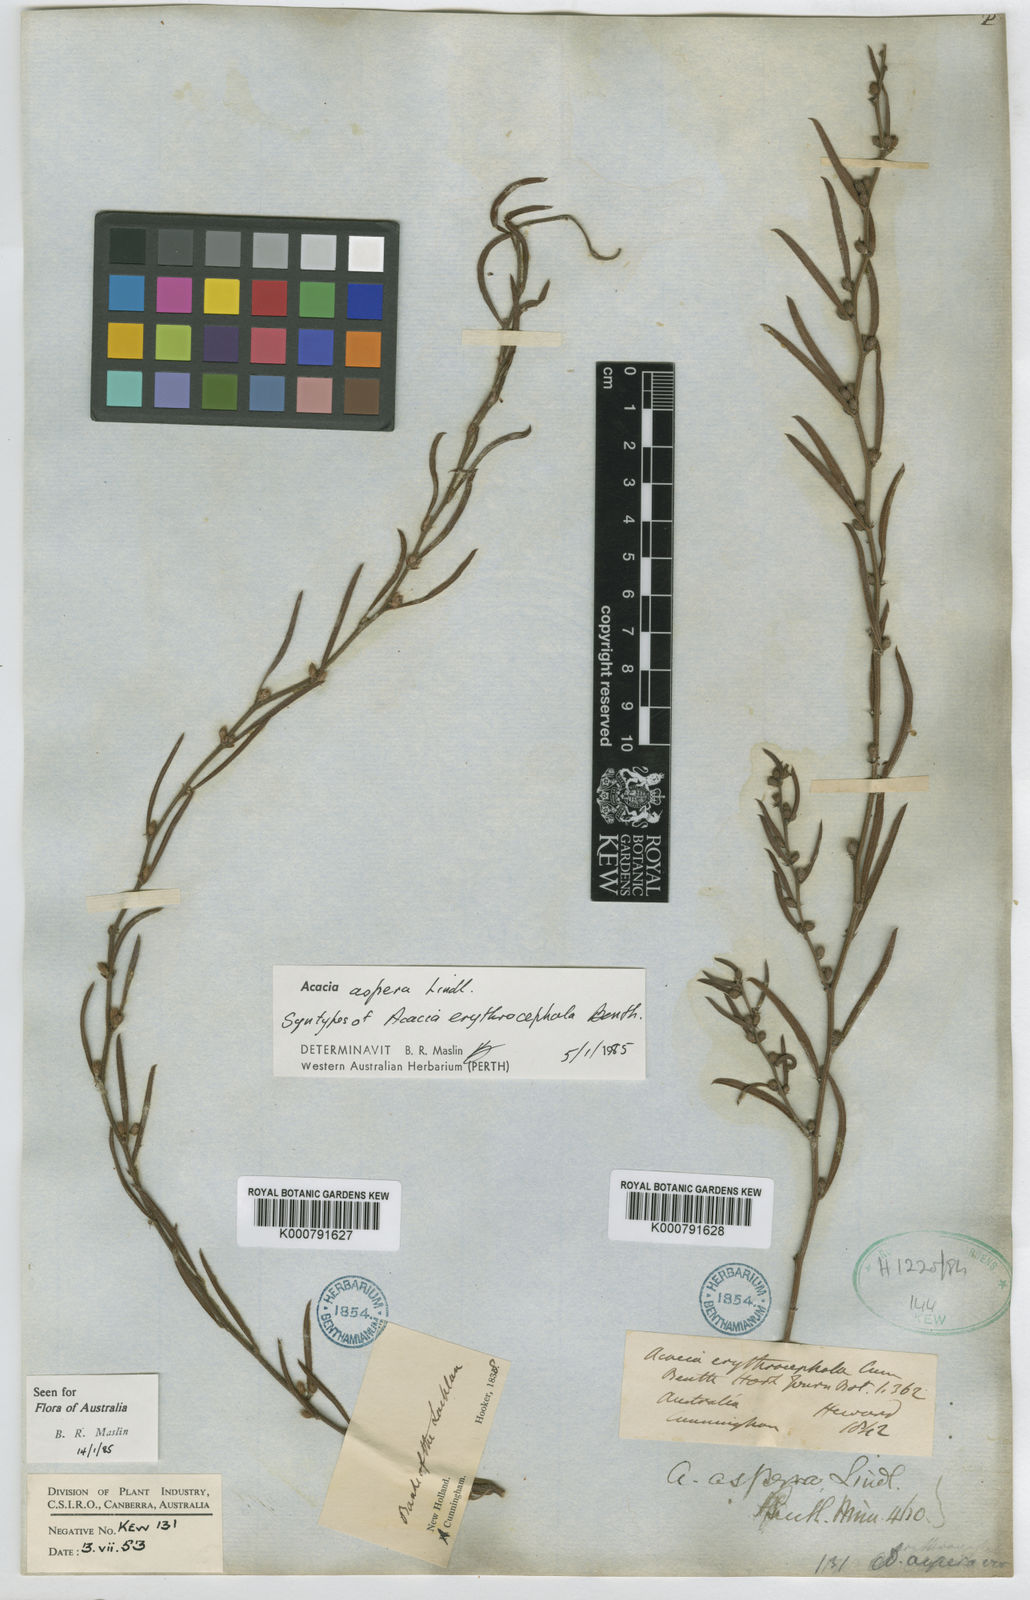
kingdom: Plantae
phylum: Tracheophyta
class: Magnoliopsida
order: Fabales
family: Fabaceae
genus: Acacia
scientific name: Acacia aspera
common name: Rough wattle
